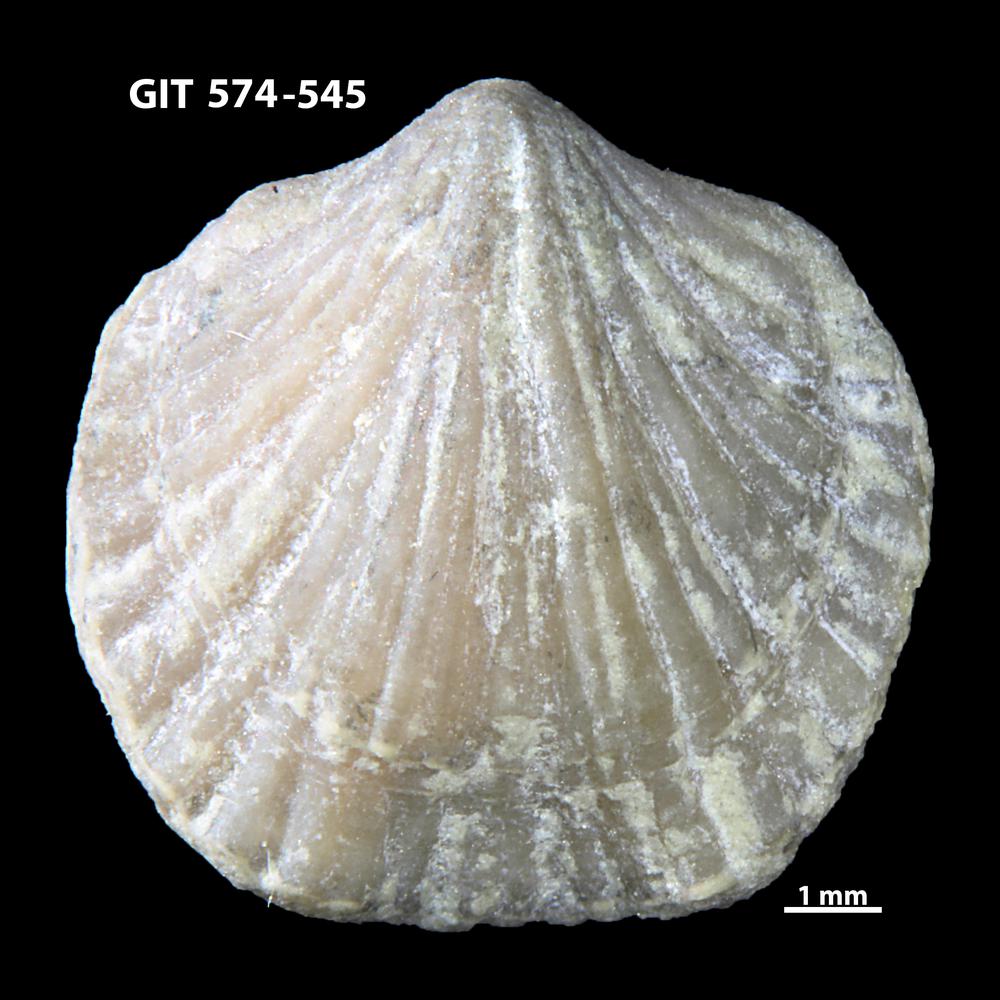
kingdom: Animalia
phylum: Brachiopoda
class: Rhynchonellata
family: Atrypinidae
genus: Eospirigerina
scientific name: Eospirigerina
